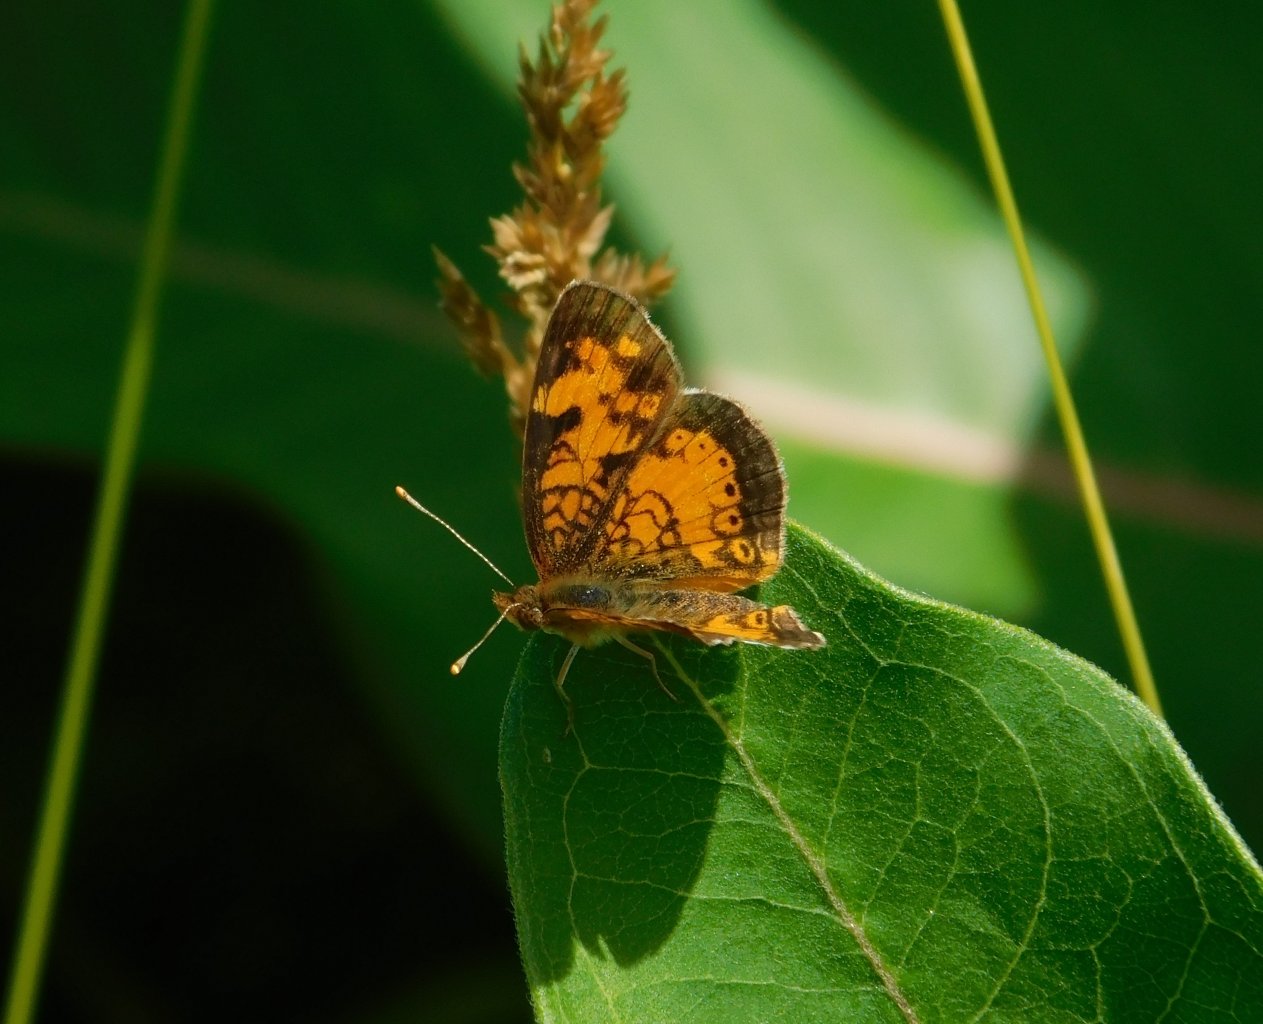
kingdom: Animalia
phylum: Arthropoda
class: Insecta
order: Lepidoptera
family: Nymphalidae
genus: Phyciodes
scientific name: Phyciodes tharos
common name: Northern Crescent
